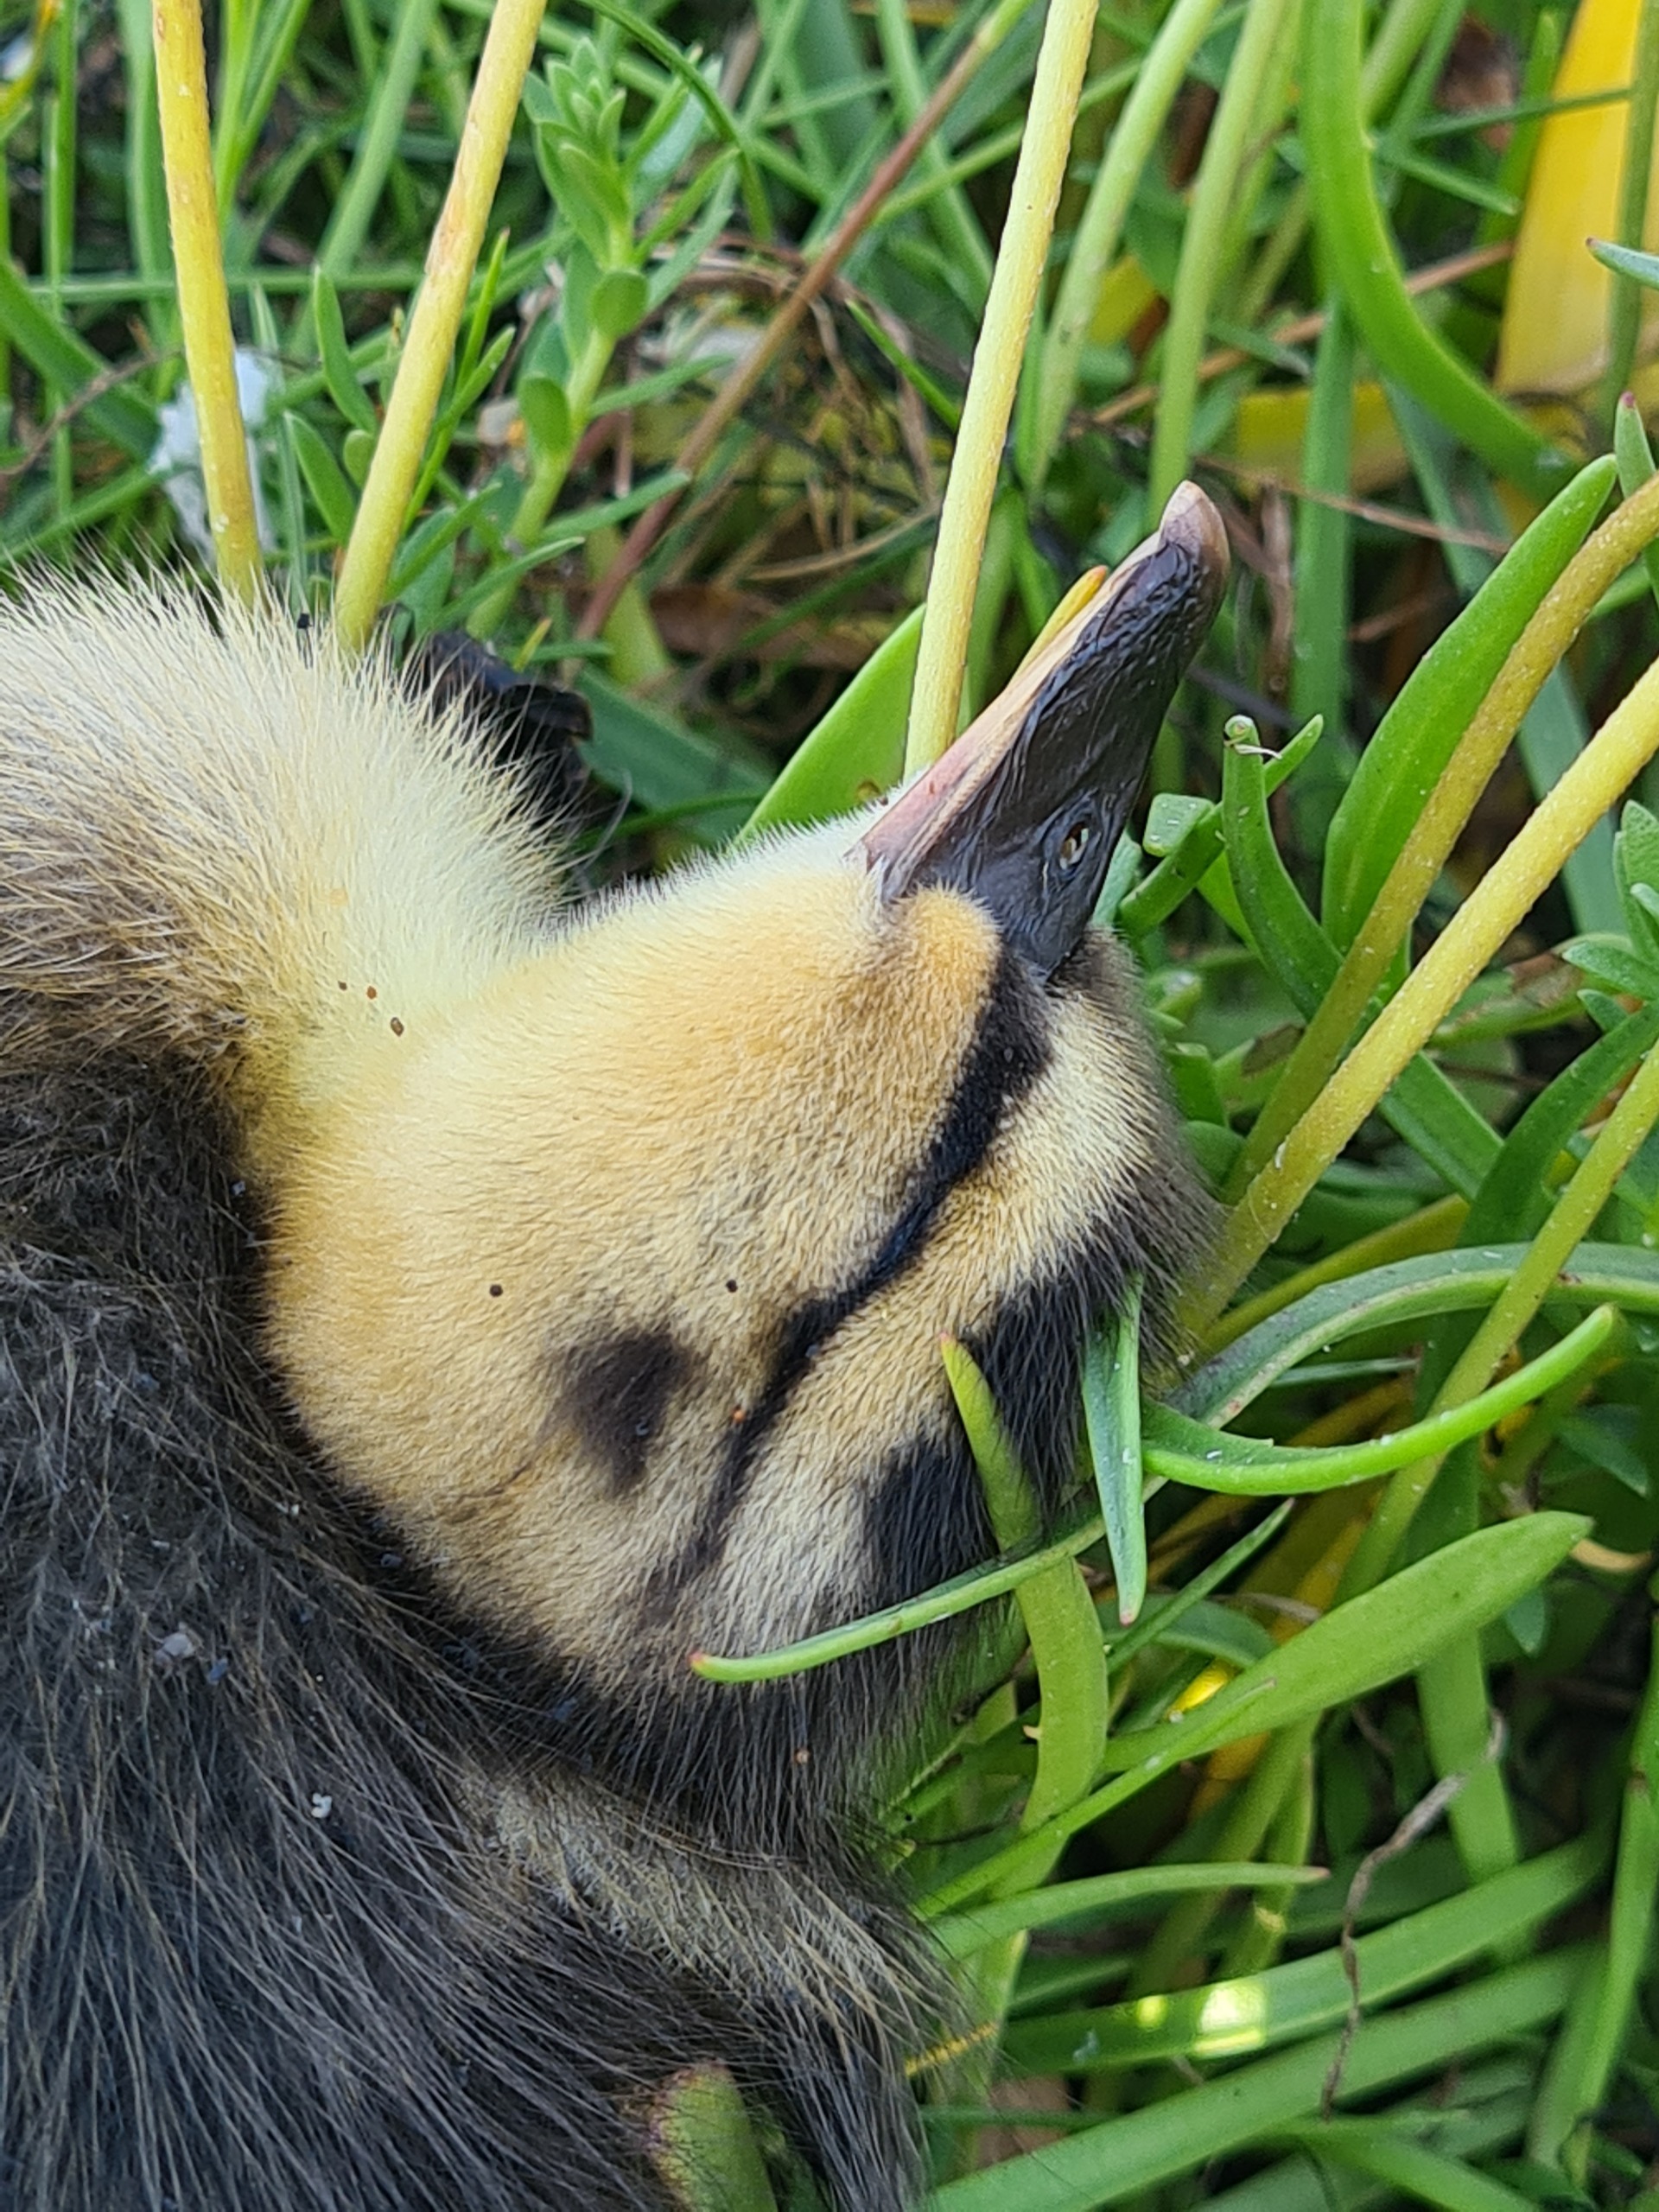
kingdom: Animalia
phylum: Chordata
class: Aves
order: Anseriformes
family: Anatidae
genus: Anas
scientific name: Anas platyrhynchos
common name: Gråand
